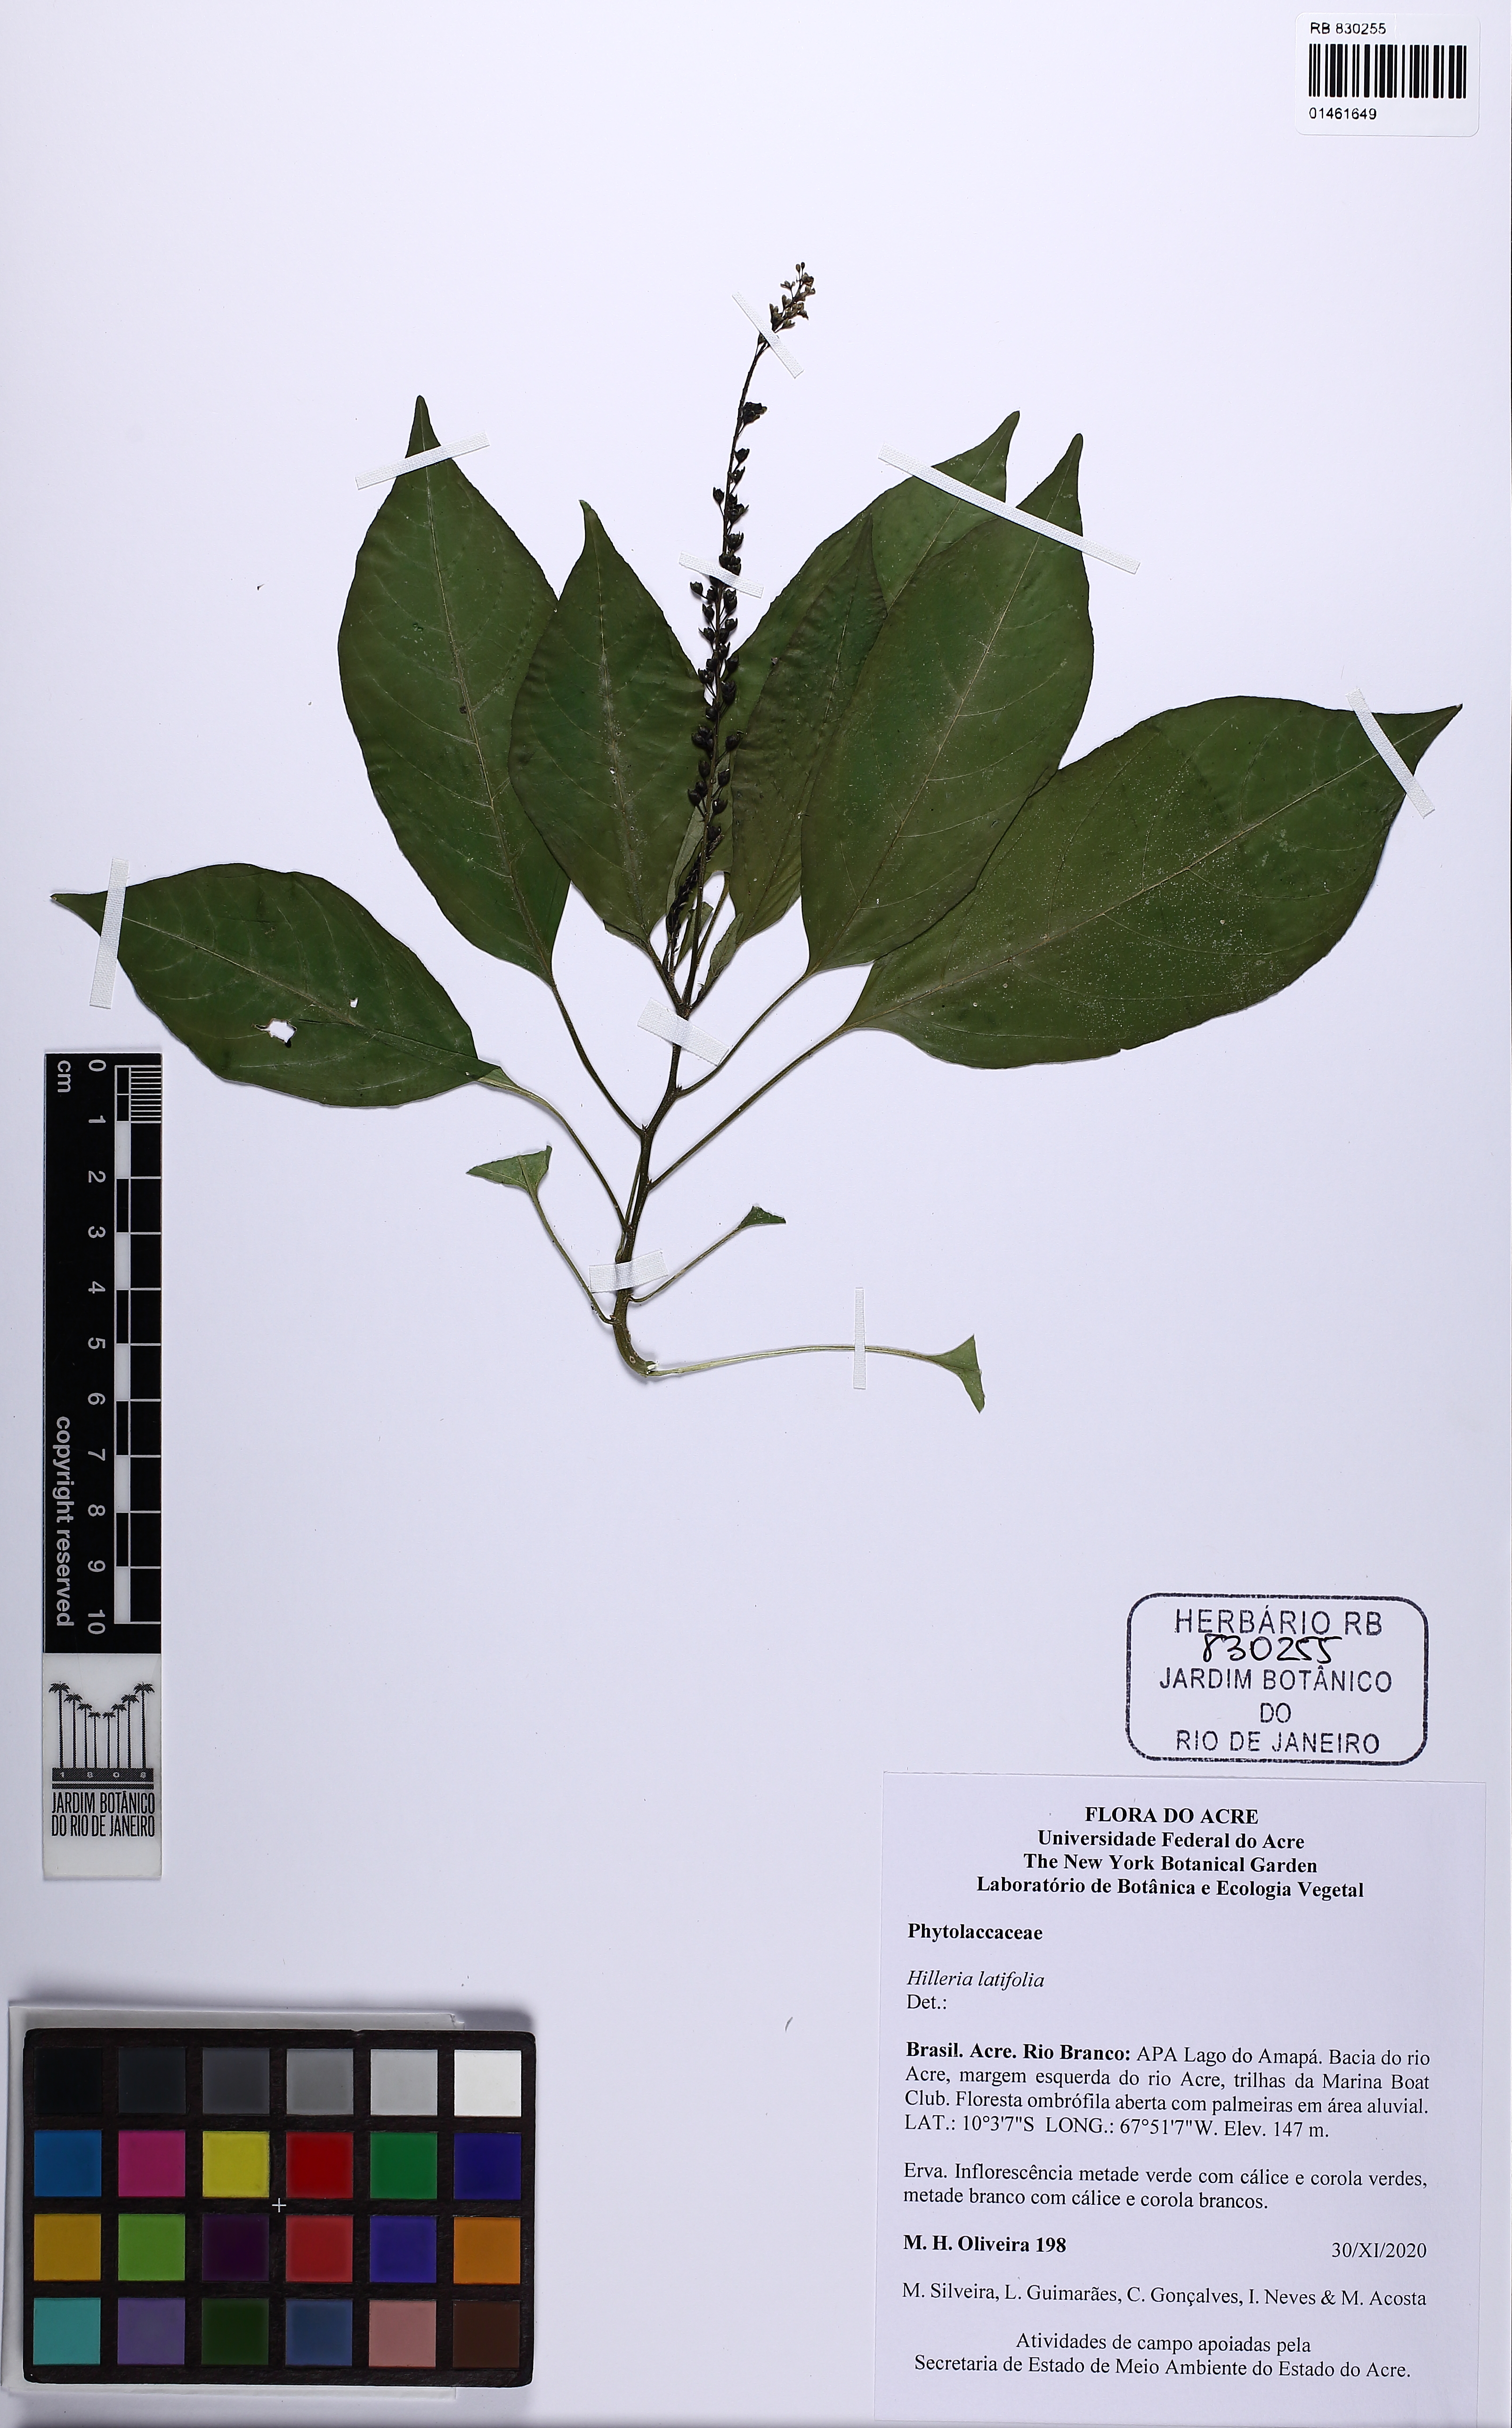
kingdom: Plantae
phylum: Tracheophyta
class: Magnoliopsida
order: Caryophyllales
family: Phytolaccaceae
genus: Hilleria
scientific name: Hilleria latifolia
